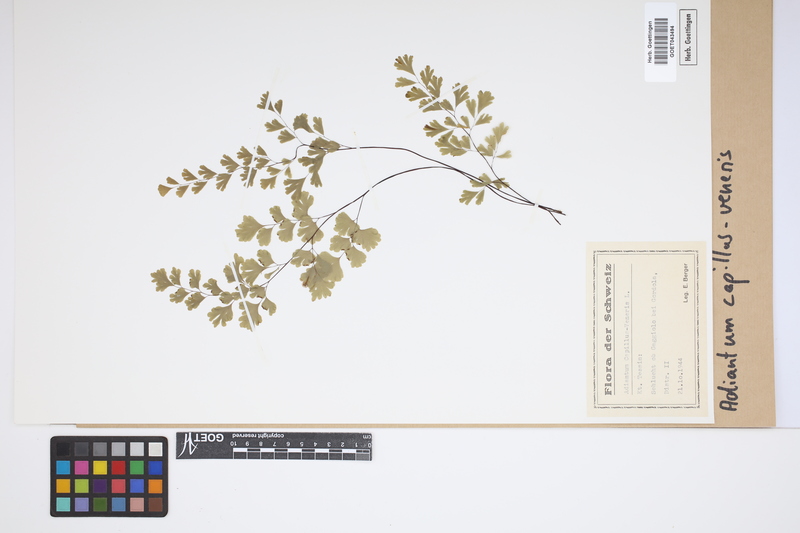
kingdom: Plantae
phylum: Tracheophyta
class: Polypodiopsida
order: Polypodiales
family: Pteridaceae
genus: Adiantum
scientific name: Adiantum capillus-veneris
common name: Maidenhair fern
